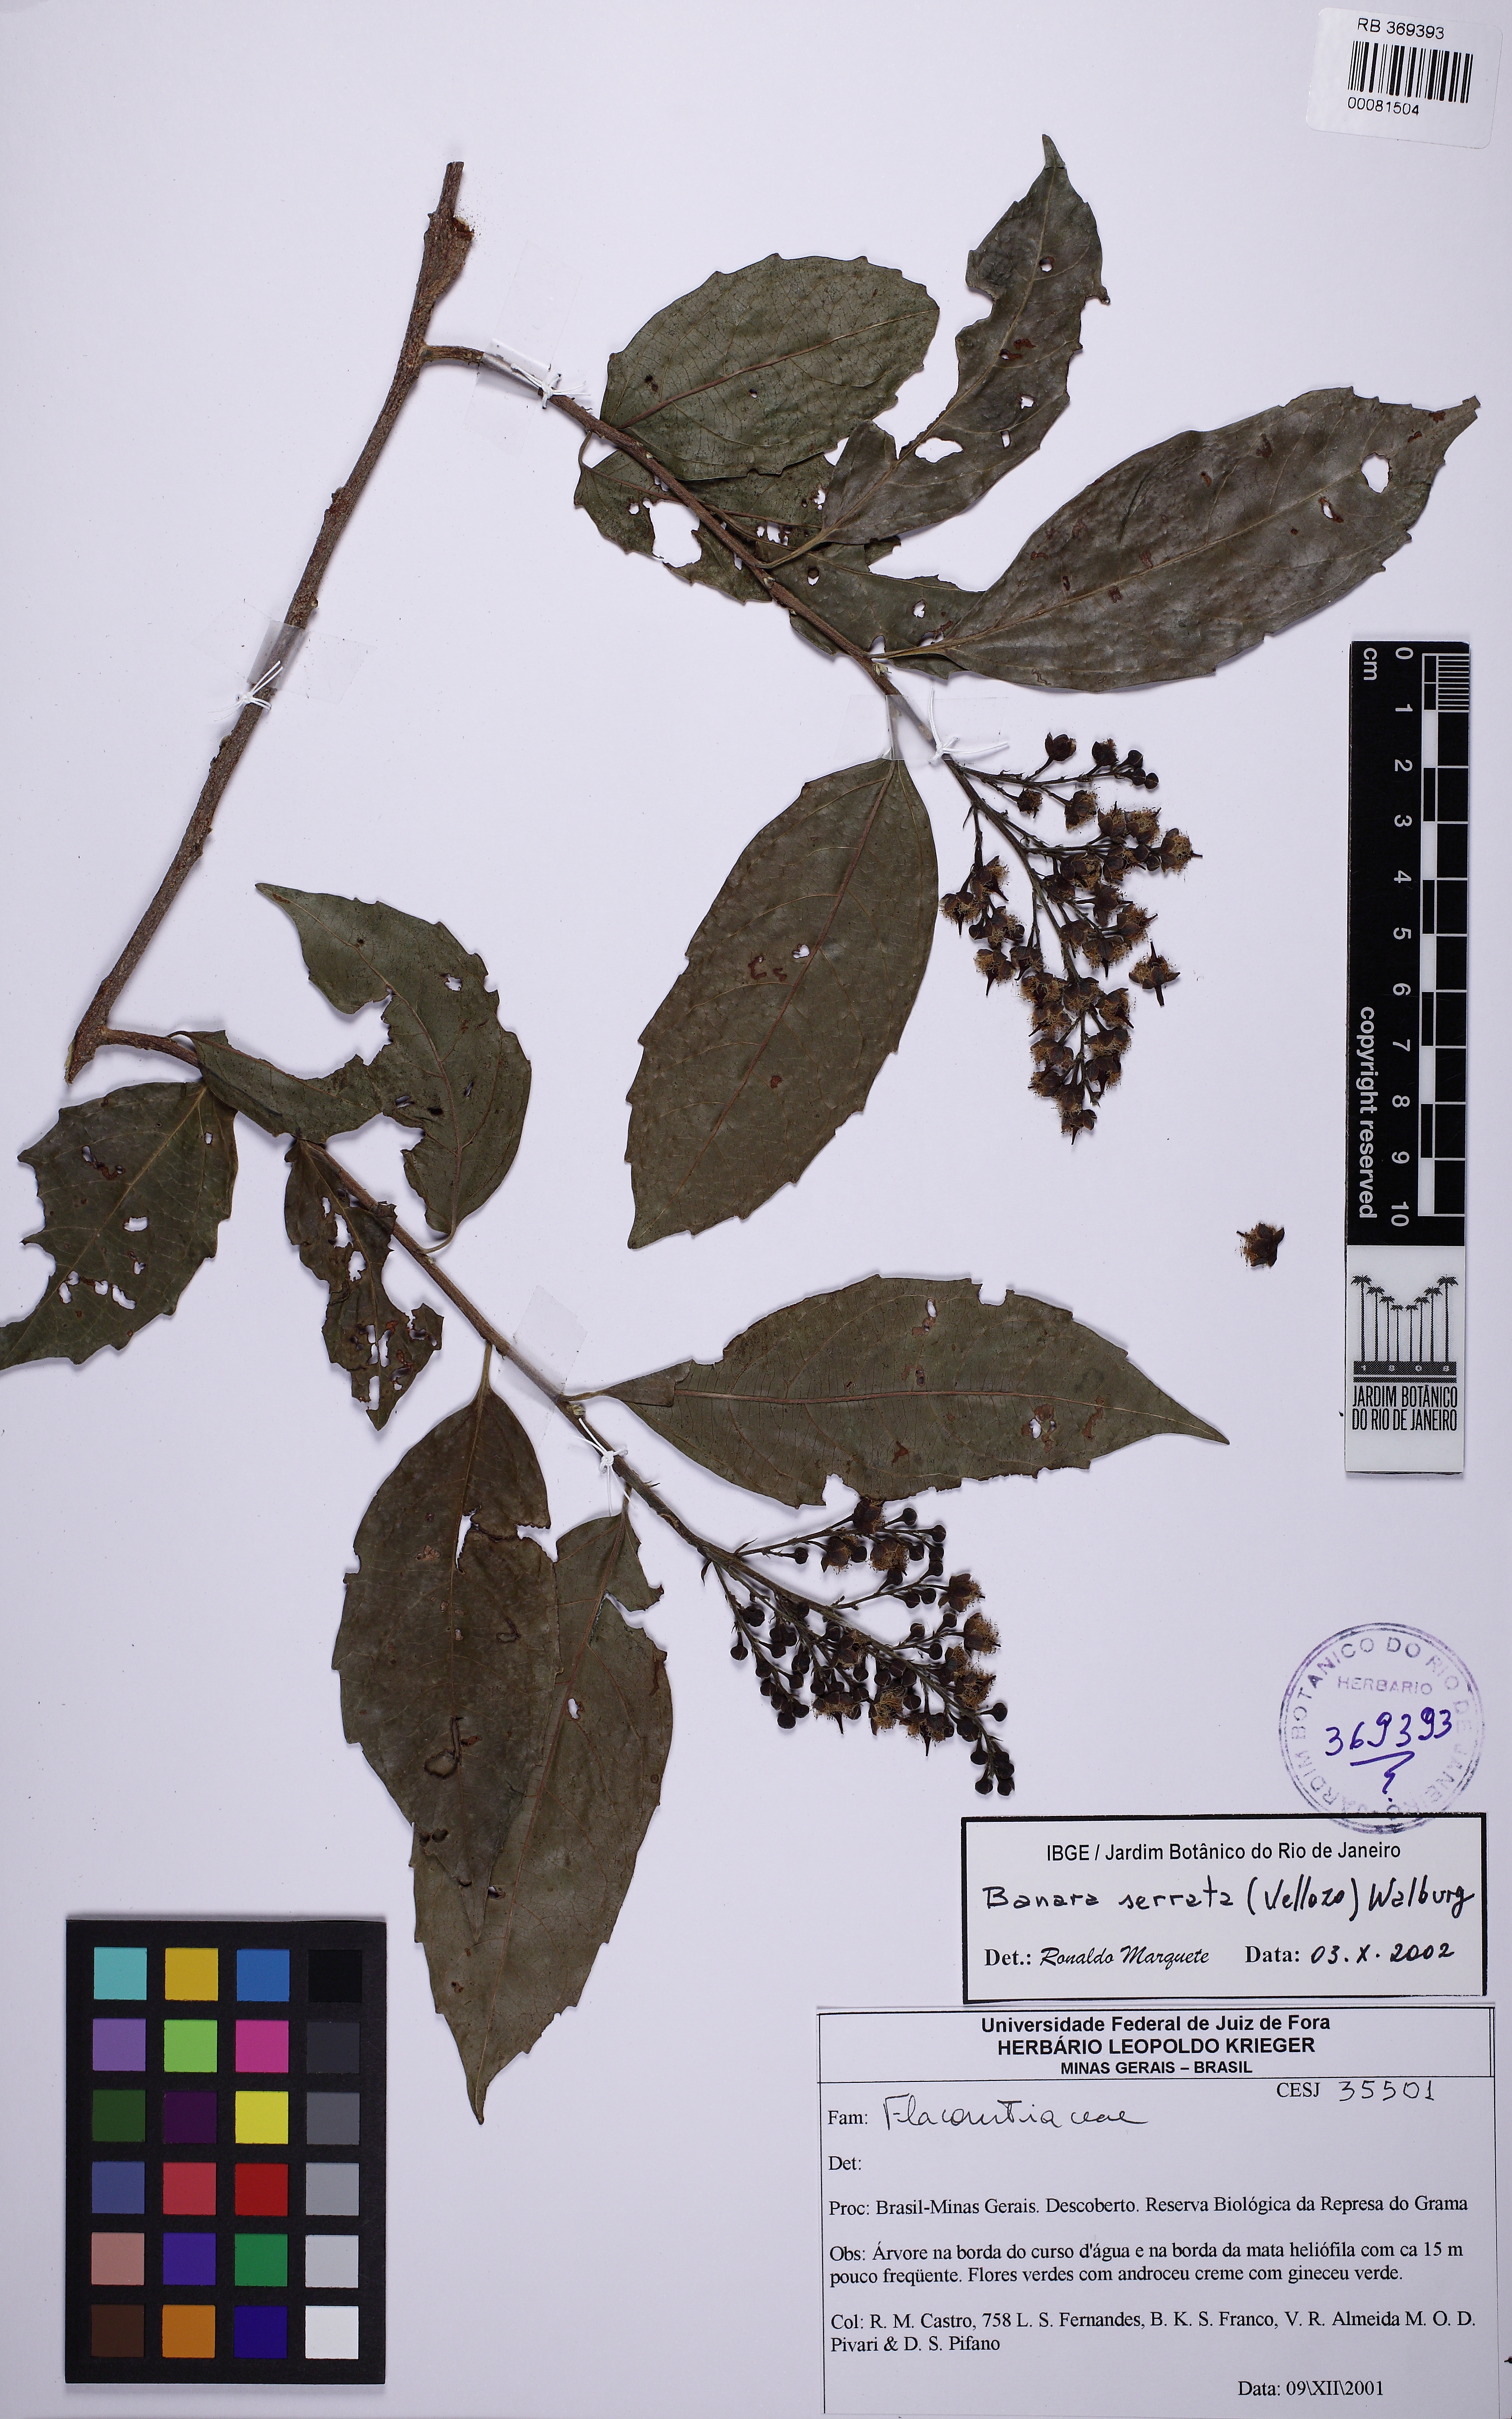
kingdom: Plantae
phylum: Tracheophyta
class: Magnoliopsida
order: Malpighiales
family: Salicaceae
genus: Banara
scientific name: Banara serrata
